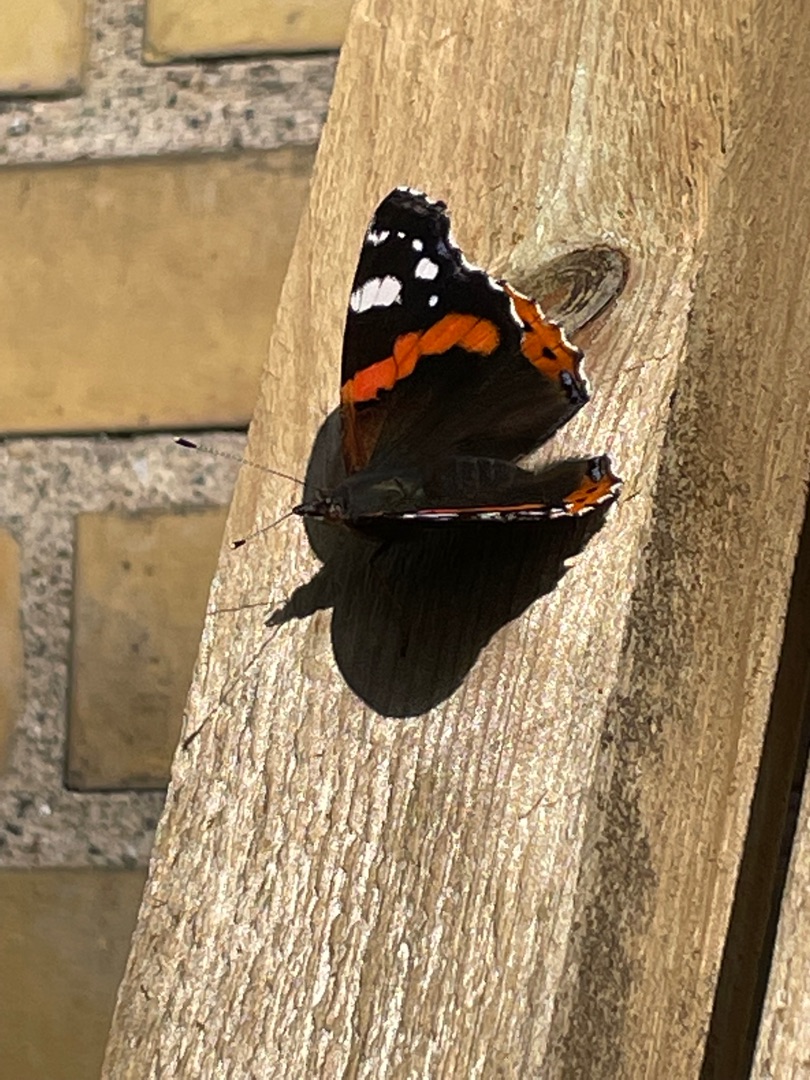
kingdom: Animalia
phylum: Arthropoda
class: Insecta
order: Lepidoptera
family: Nymphalidae
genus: Vanessa
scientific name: Vanessa atalanta
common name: Admiral
